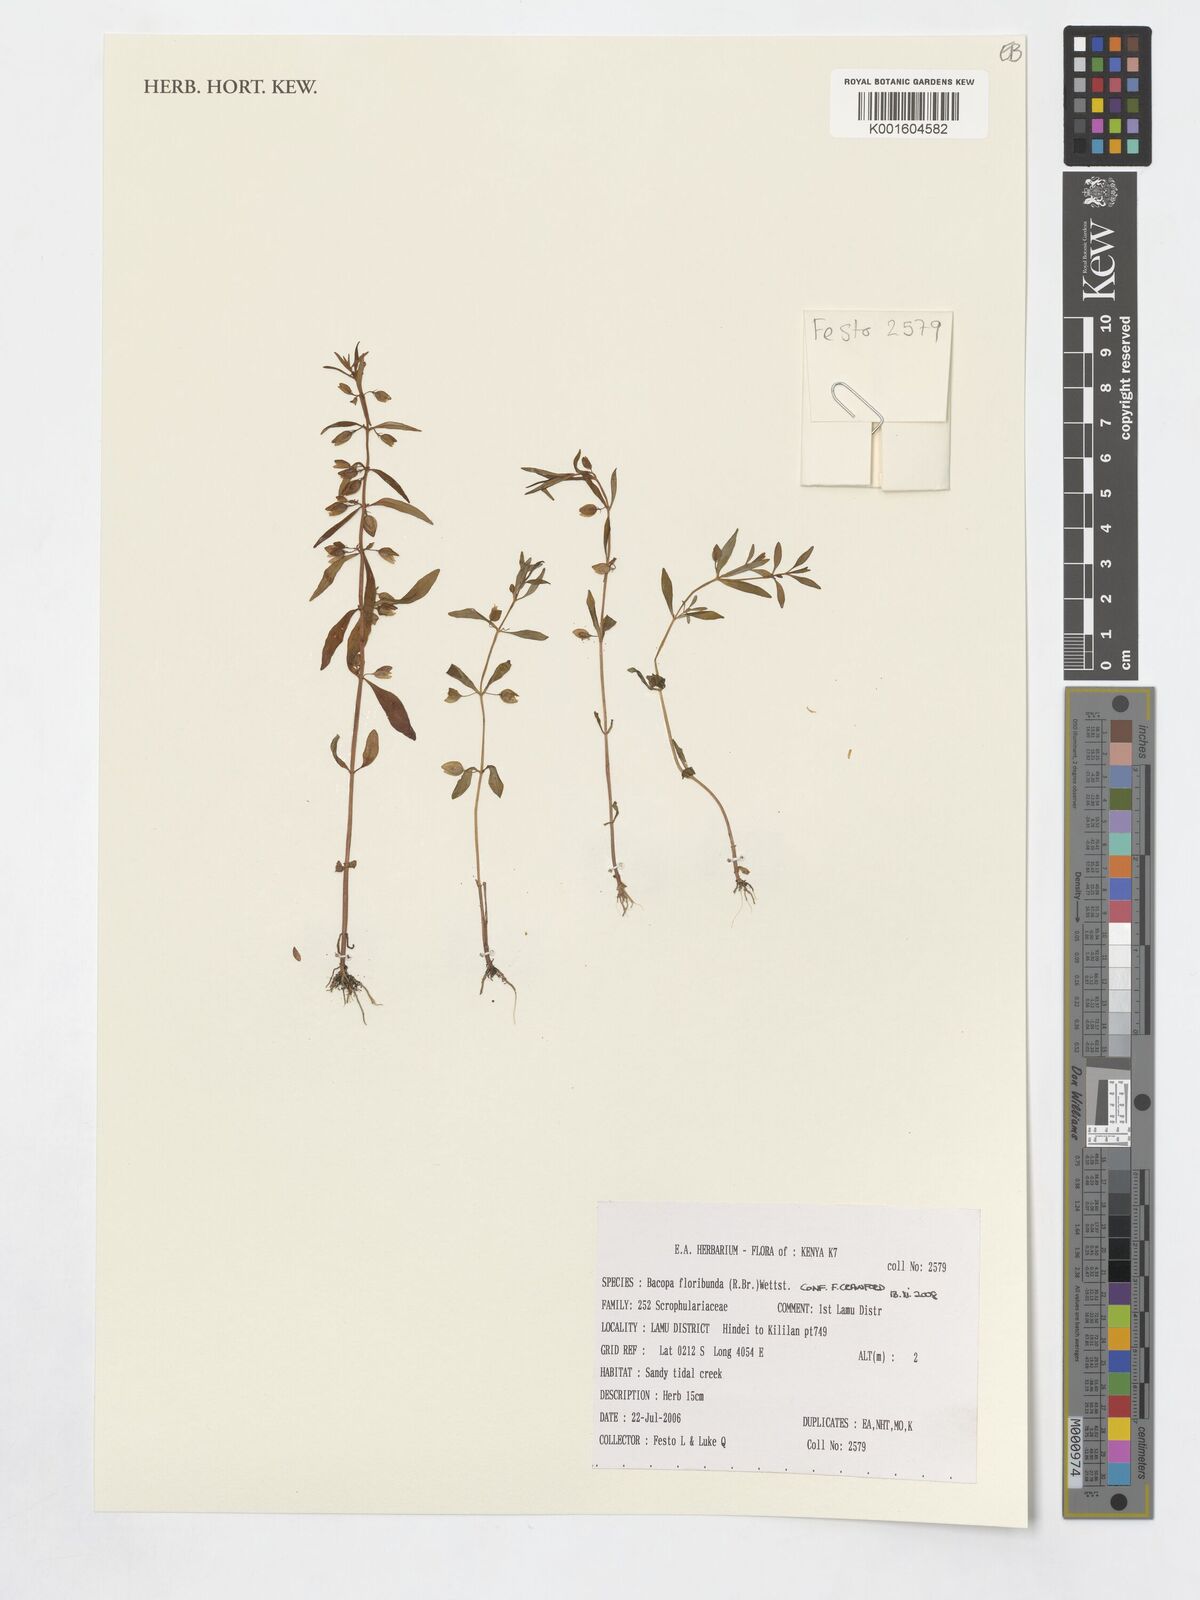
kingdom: Plantae
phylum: Tracheophyta
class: Magnoliopsida
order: Lamiales
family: Plantaginaceae
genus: Bacopa
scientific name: Bacopa floribunda
